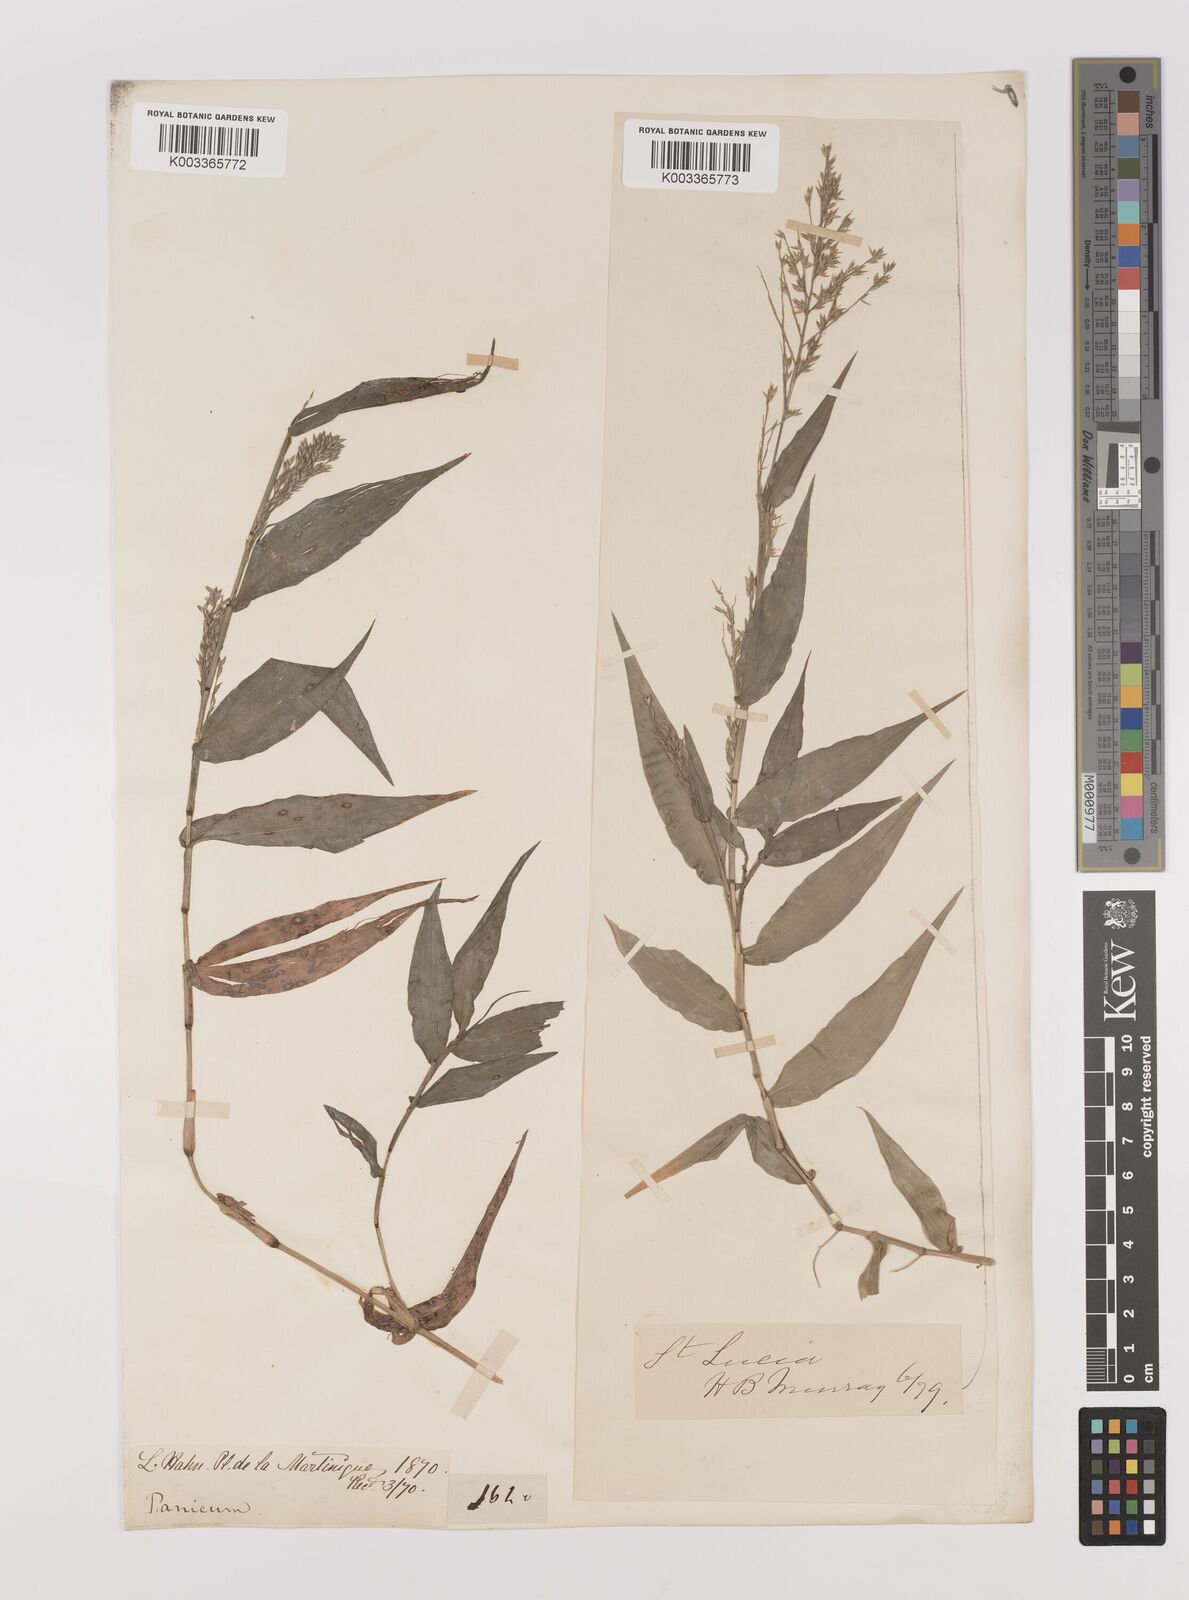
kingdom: Plantae
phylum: Tracheophyta
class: Liliopsida
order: Poales
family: Poaceae
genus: Ichnanthus
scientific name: Ichnanthus pallens
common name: Water grass
